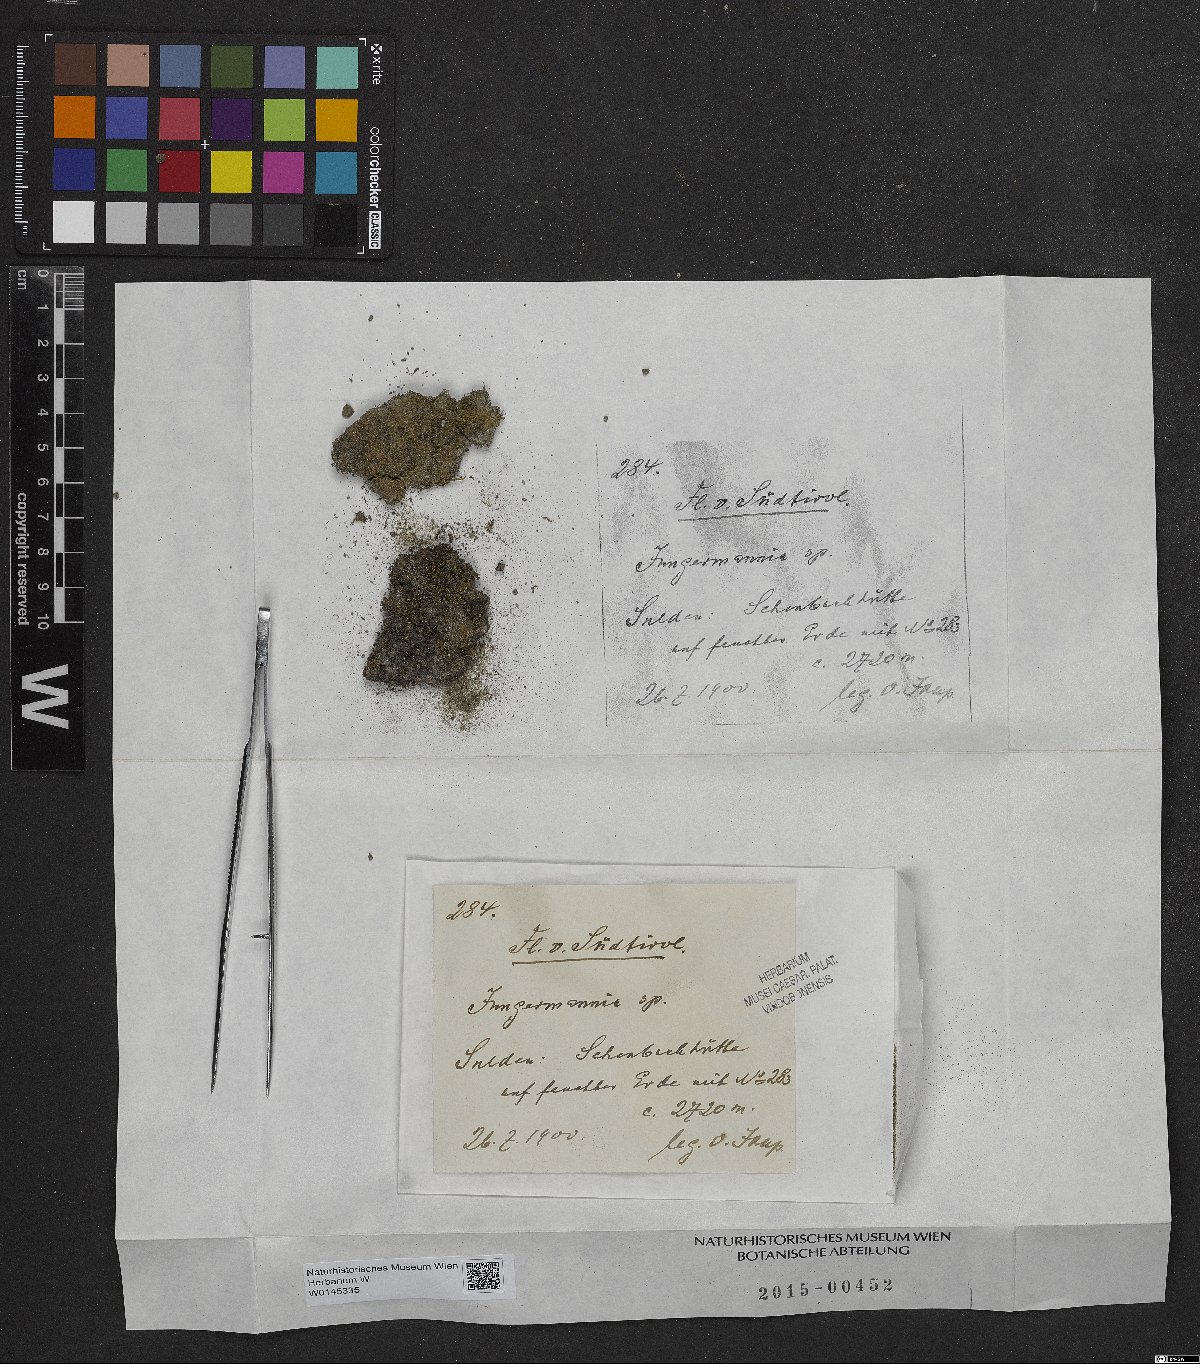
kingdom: Plantae
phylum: Marchantiophyta
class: Jungermanniopsida
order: Jungermanniales
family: Jungermanniaceae
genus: Jungermannia
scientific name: Jungermannia
